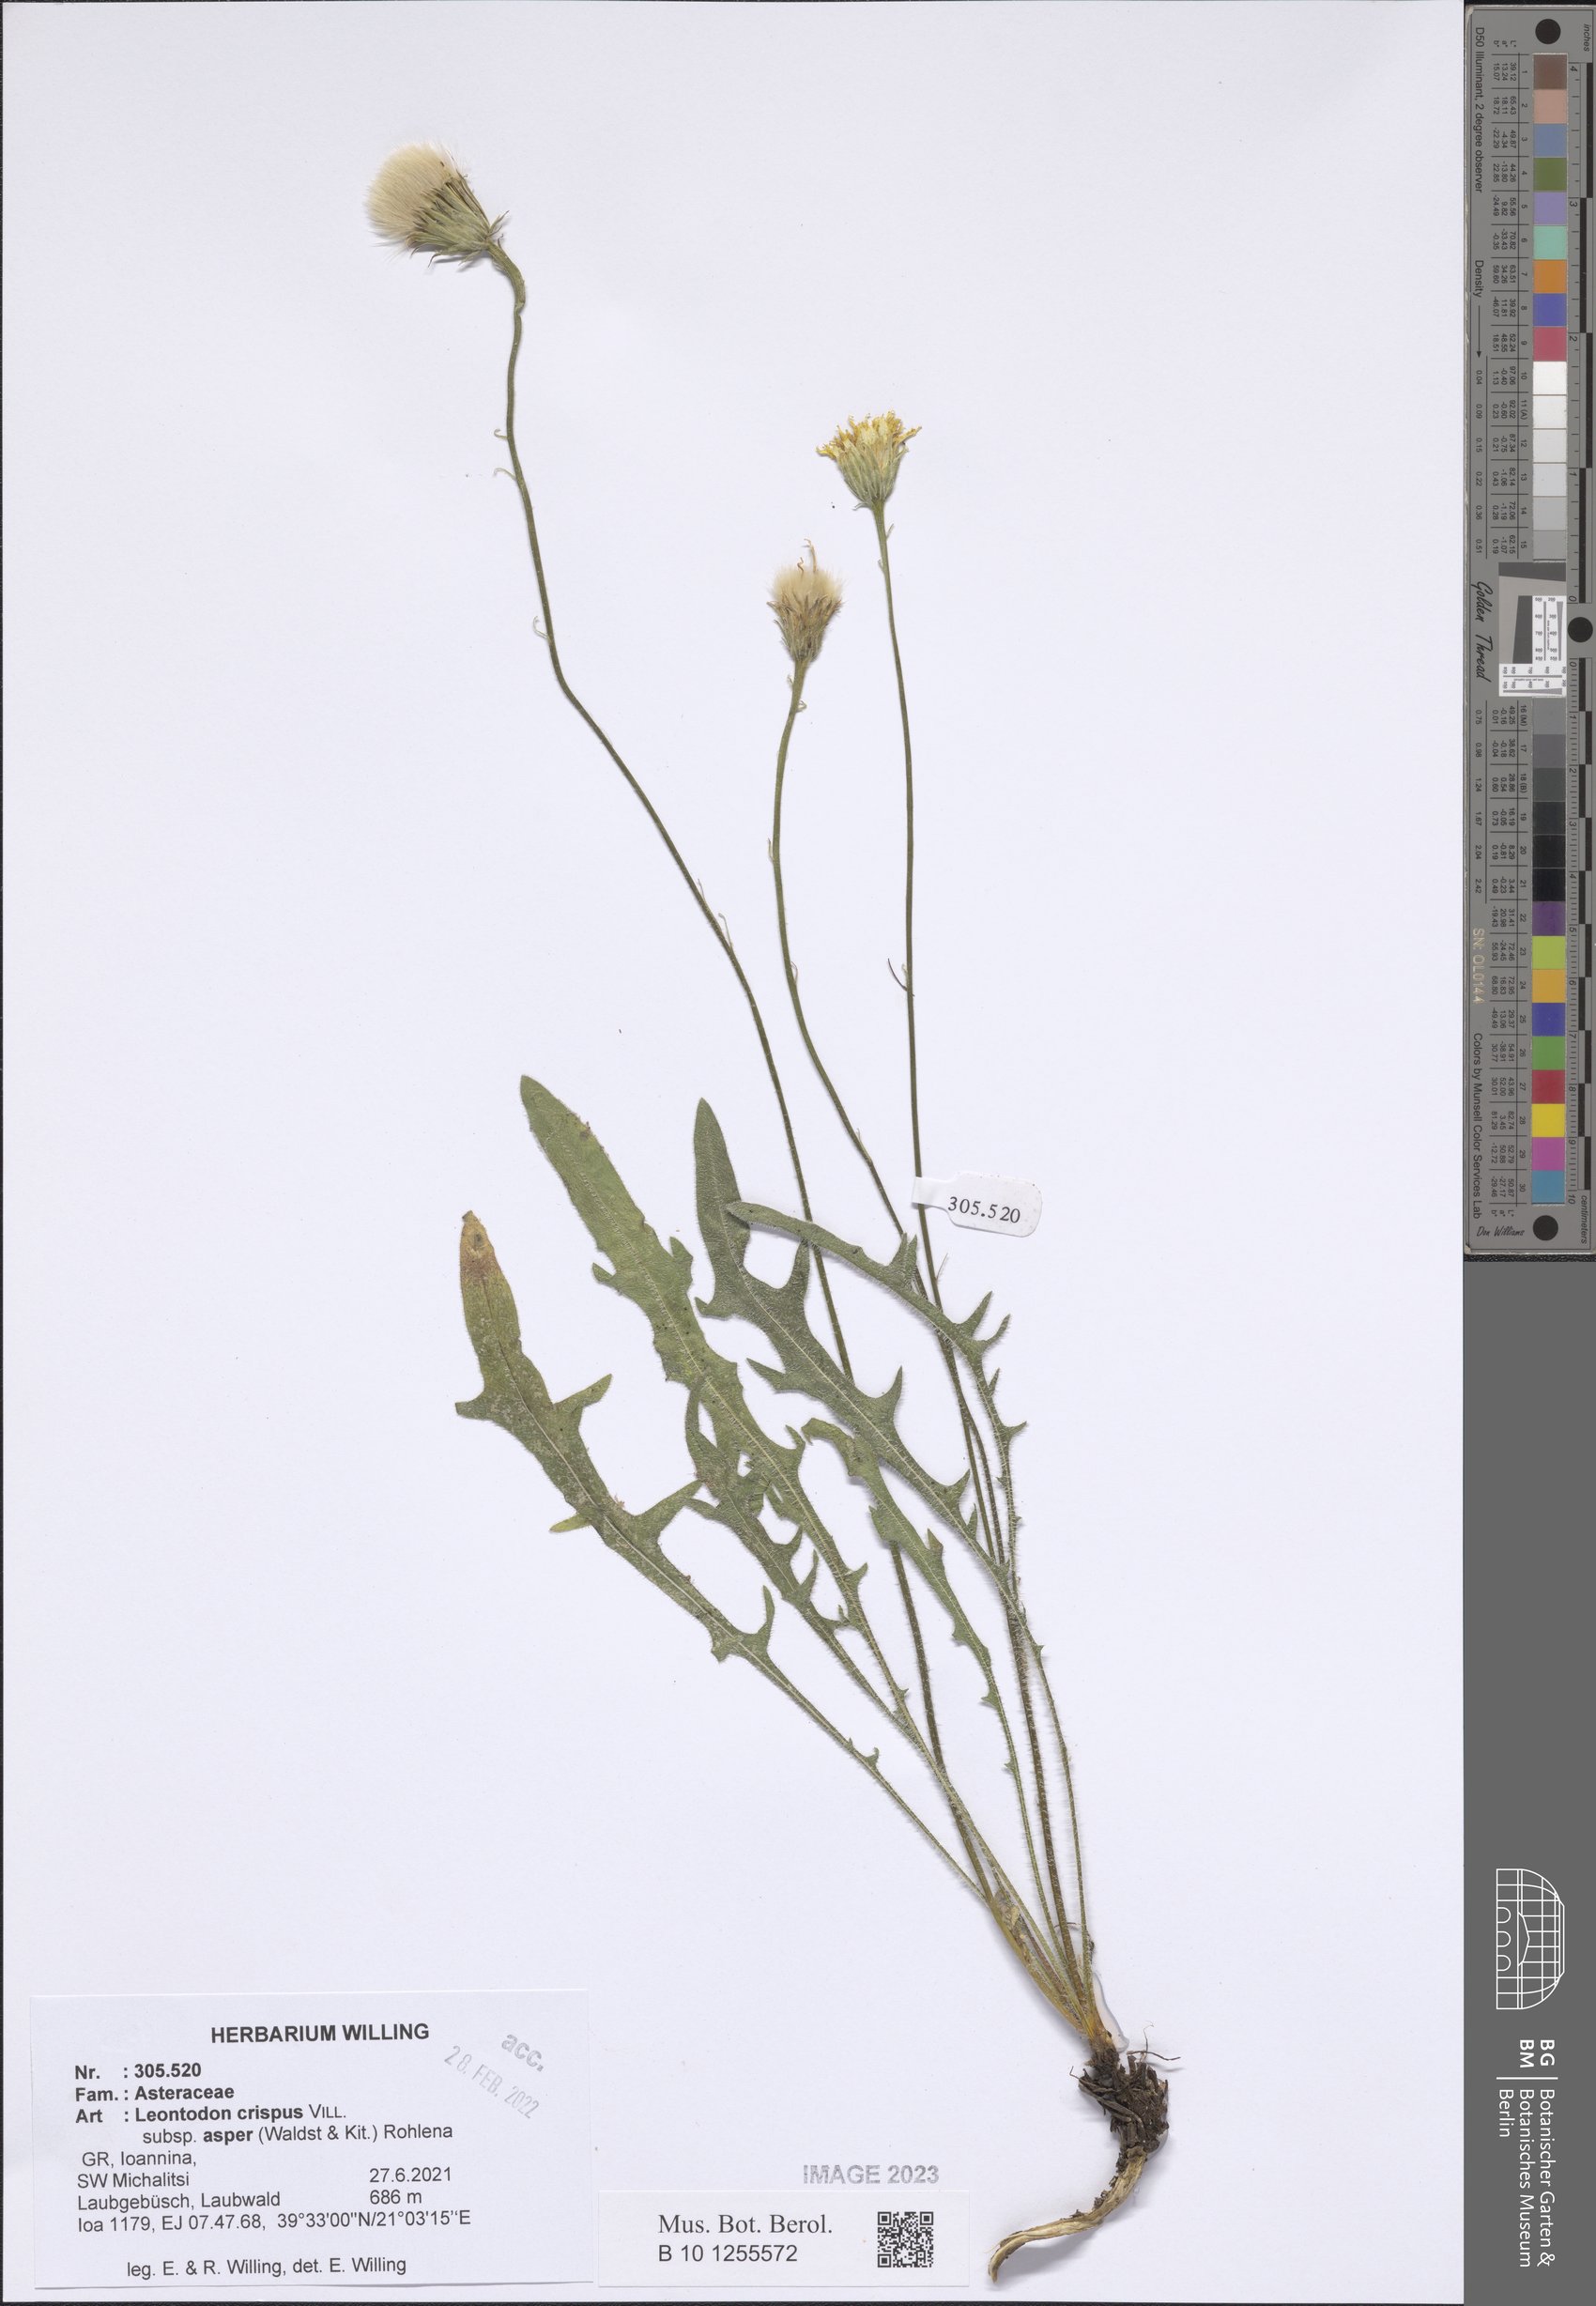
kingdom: Plantae
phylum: Tracheophyta
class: Magnoliopsida
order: Asterales
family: Asteraceae
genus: Leontodon
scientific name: Leontodon biscutellifolius
